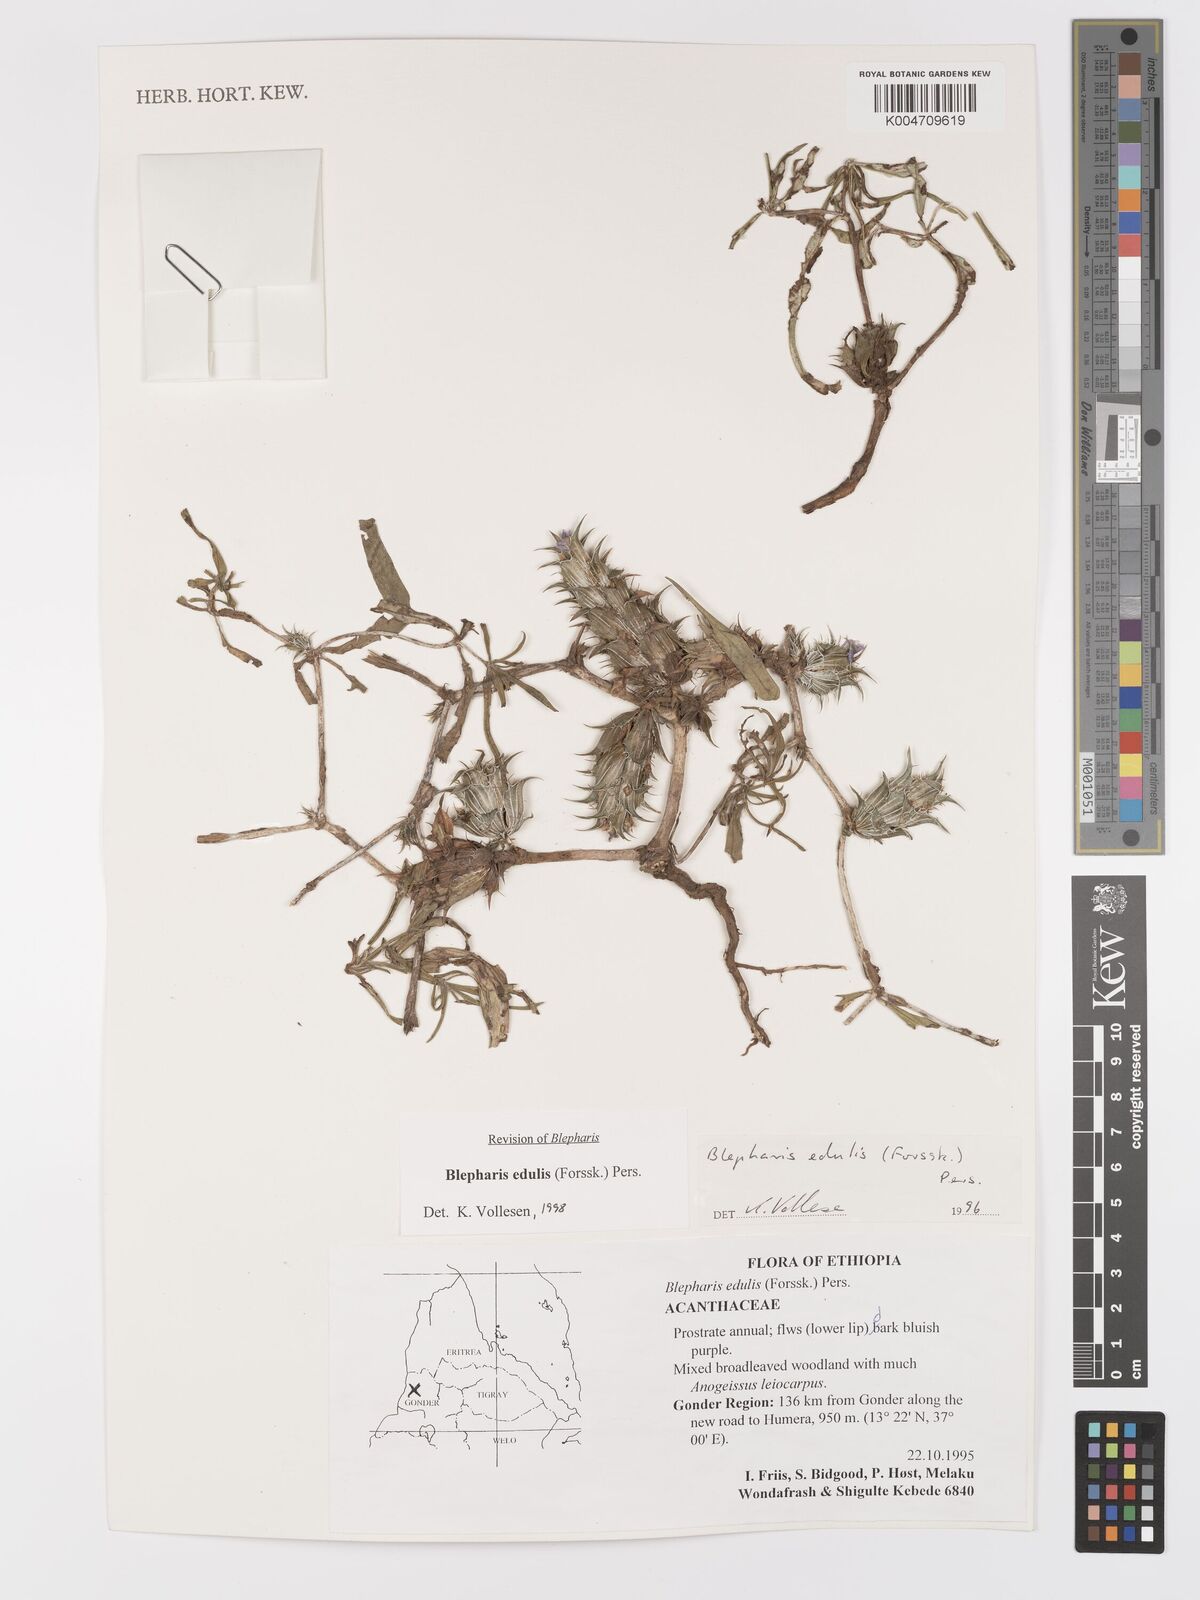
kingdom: Plantae
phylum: Tracheophyta
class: Magnoliopsida
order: Lamiales
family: Acanthaceae
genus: Blepharis
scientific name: Blepharis edulis
